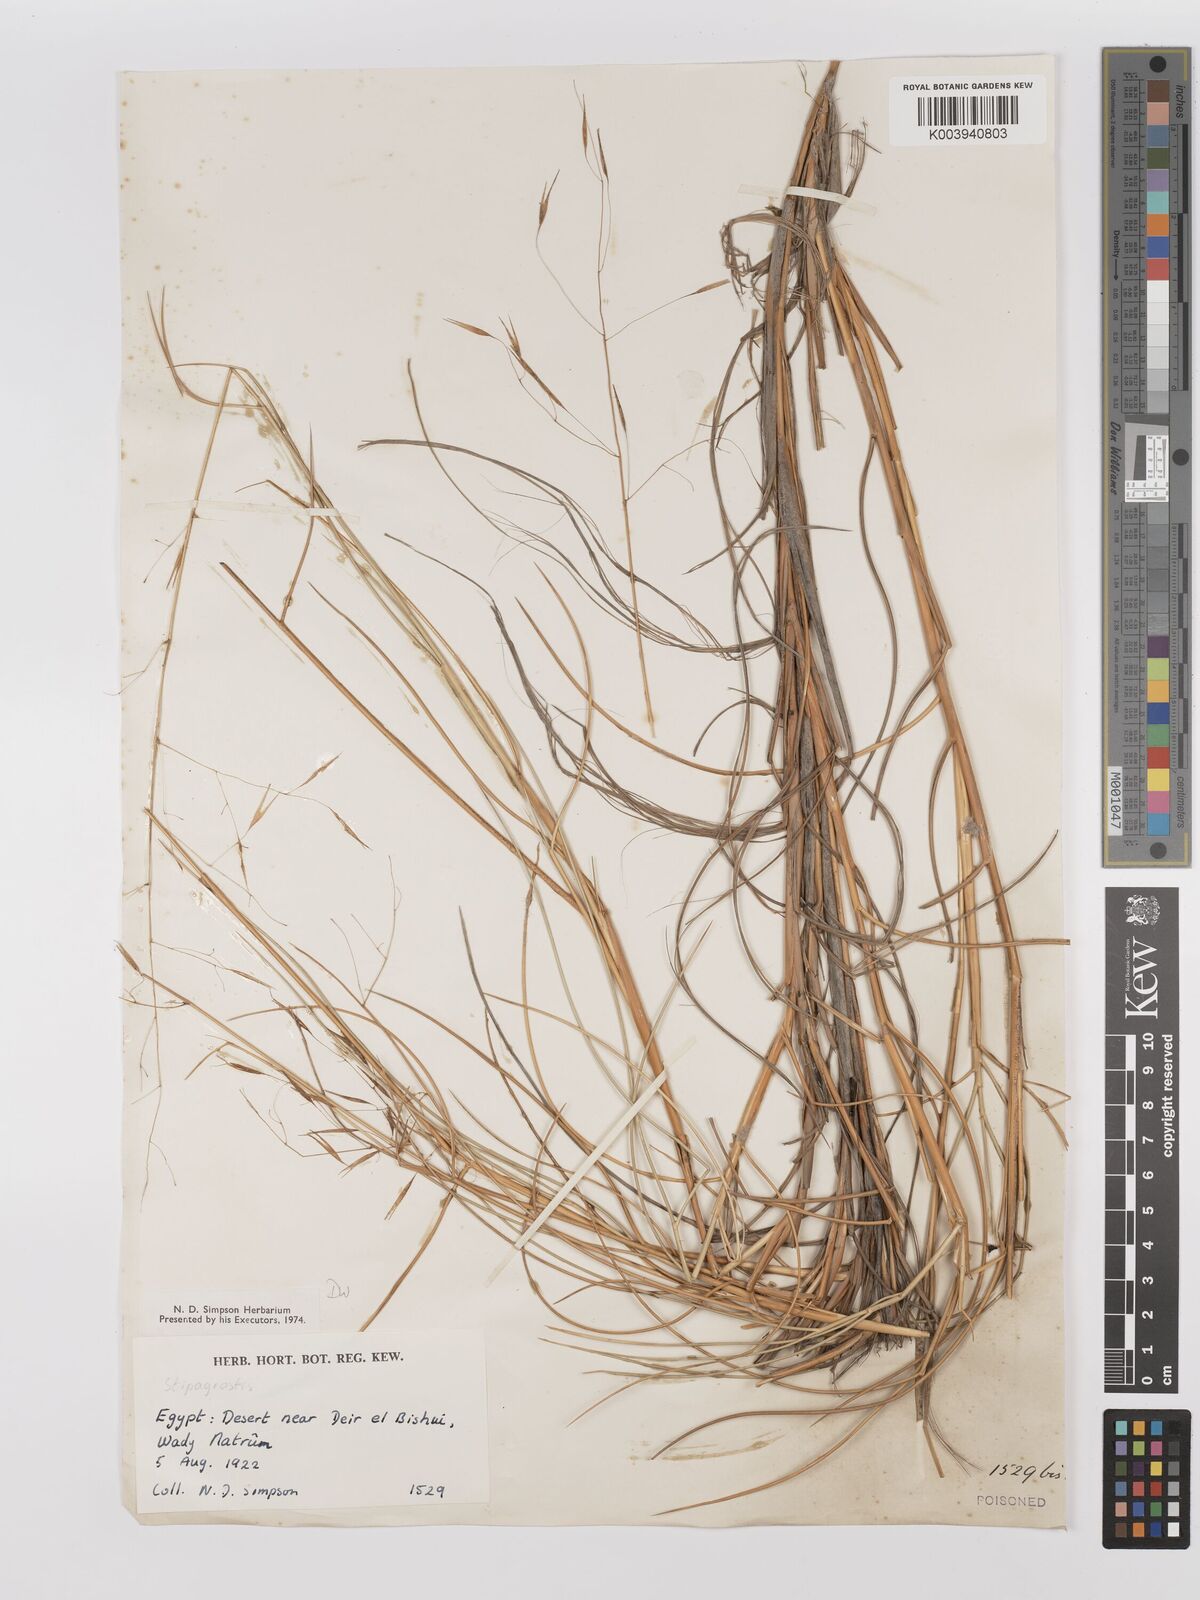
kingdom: Plantae
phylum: Tracheophyta
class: Liliopsida
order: Poales
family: Poaceae
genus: Stipagrostis
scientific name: Stipagrostis scoparia
